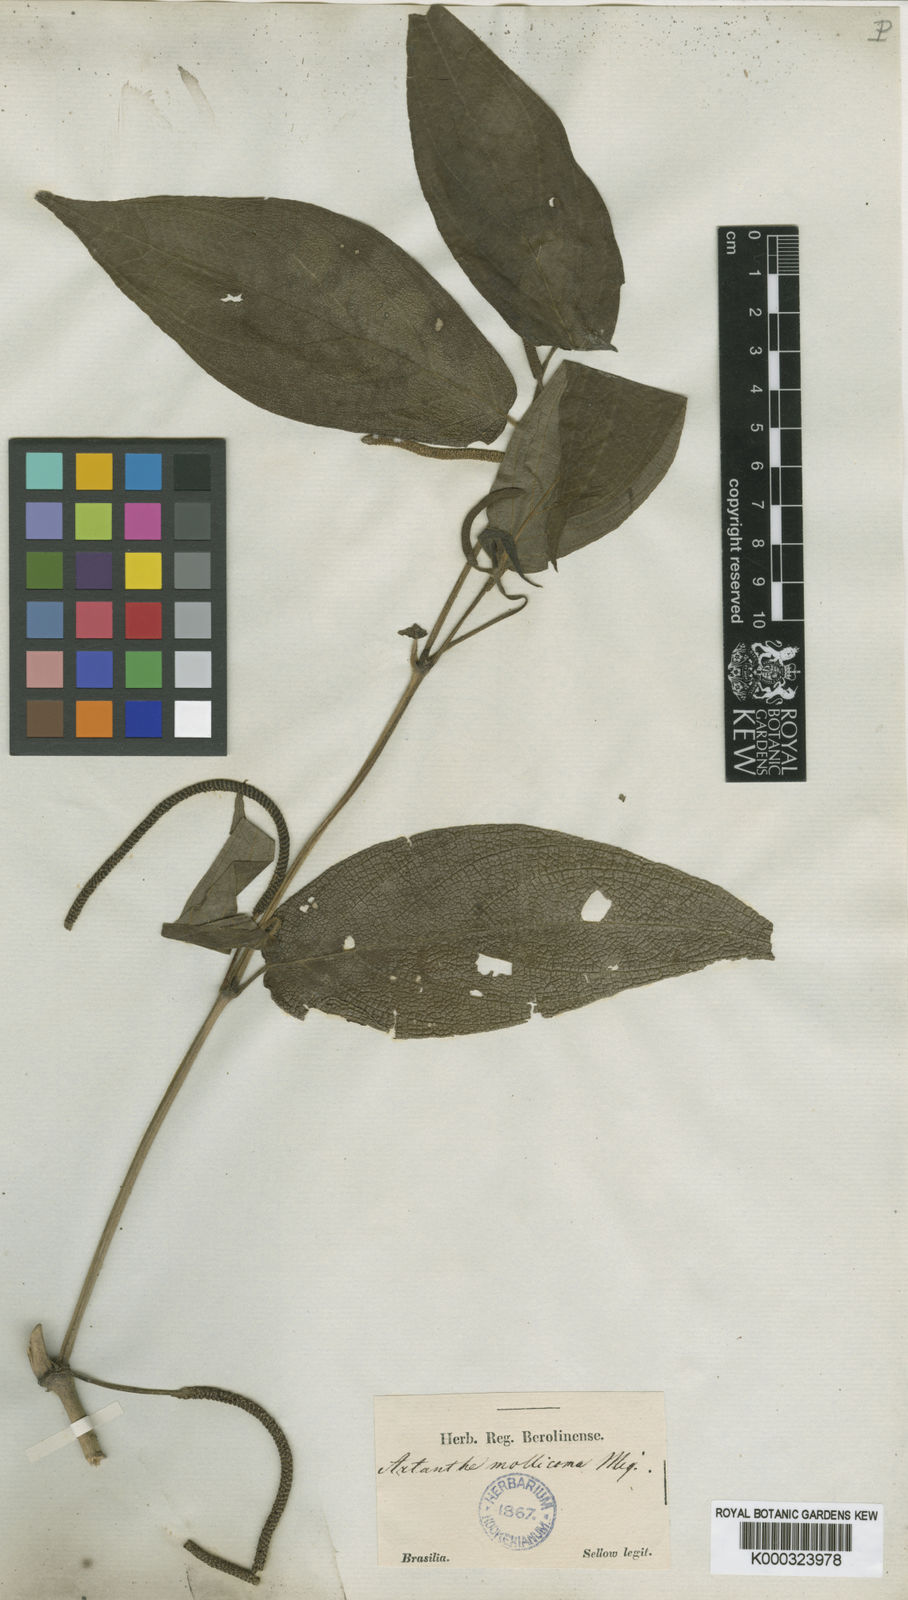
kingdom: Plantae
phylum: Tracheophyta
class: Magnoliopsida
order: Piperales
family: Piperaceae
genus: Piper
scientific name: Piper
